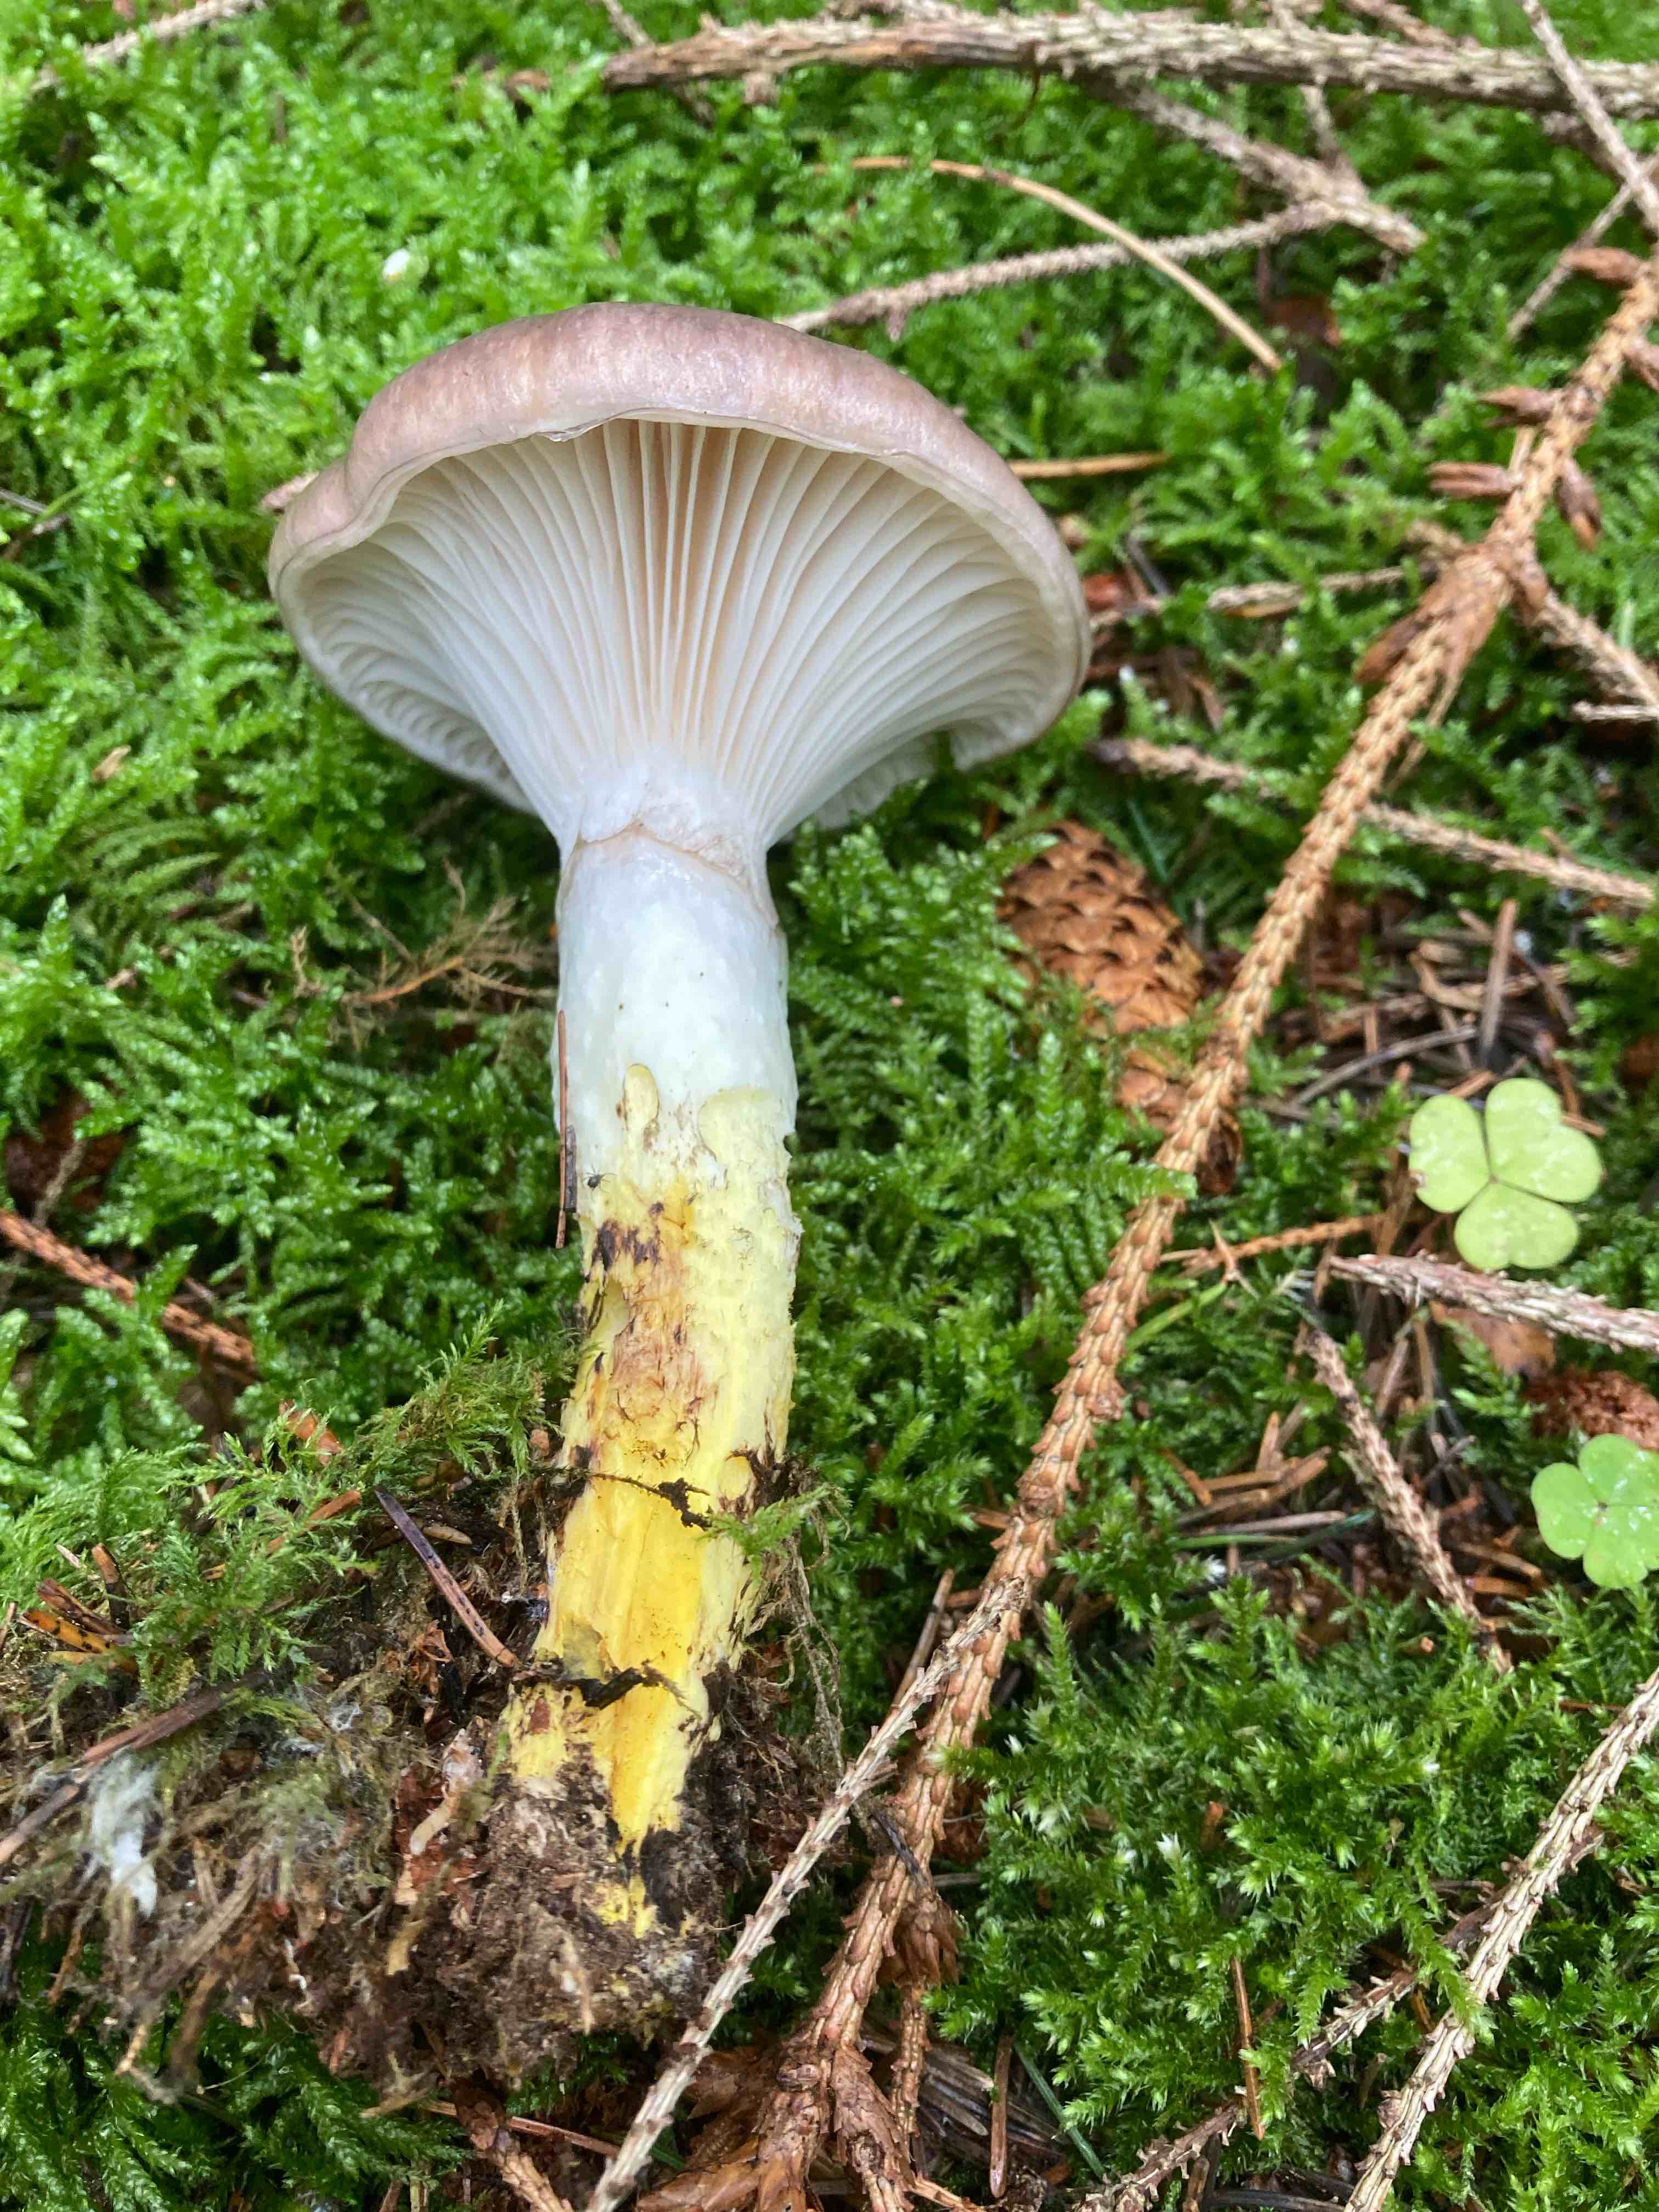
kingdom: Fungi
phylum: Basidiomycota
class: Agaricomycetes
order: Boletales
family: Gomphidiaceae
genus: Gomphidius
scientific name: Gomphidius glutinosus
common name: grå slimslør
